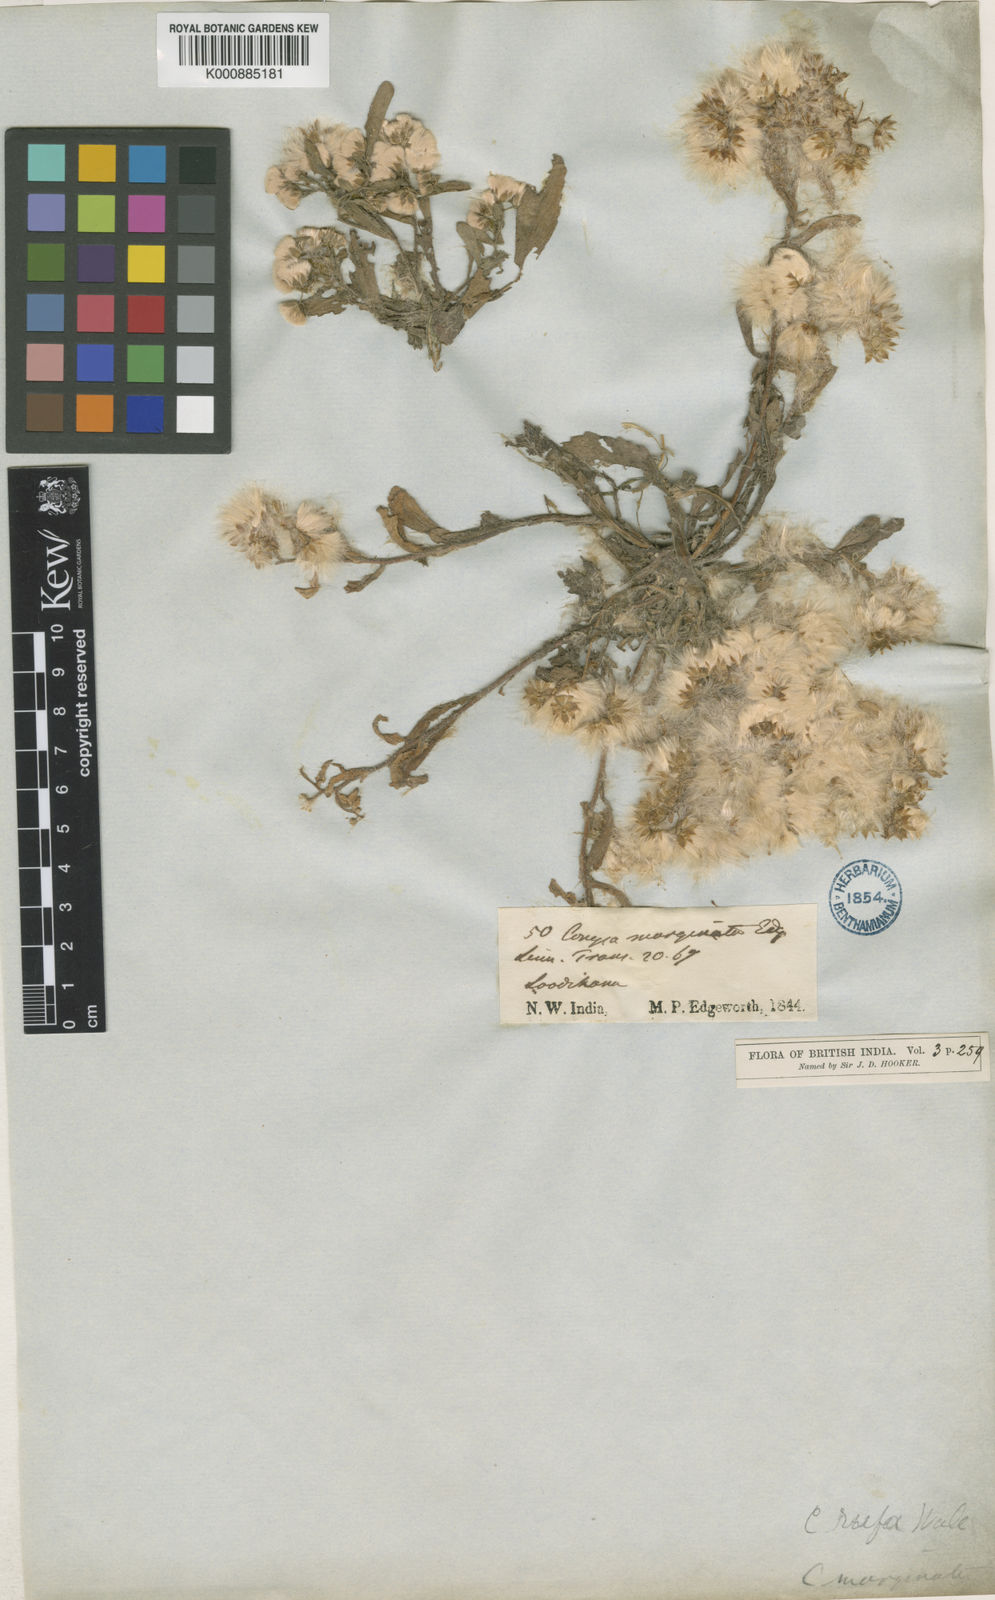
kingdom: Plantae
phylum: Tracheophyta
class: Magnoliopsida
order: Asterales
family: Asteraceae
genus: Eschenbachia
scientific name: Eschenbachia rufa
